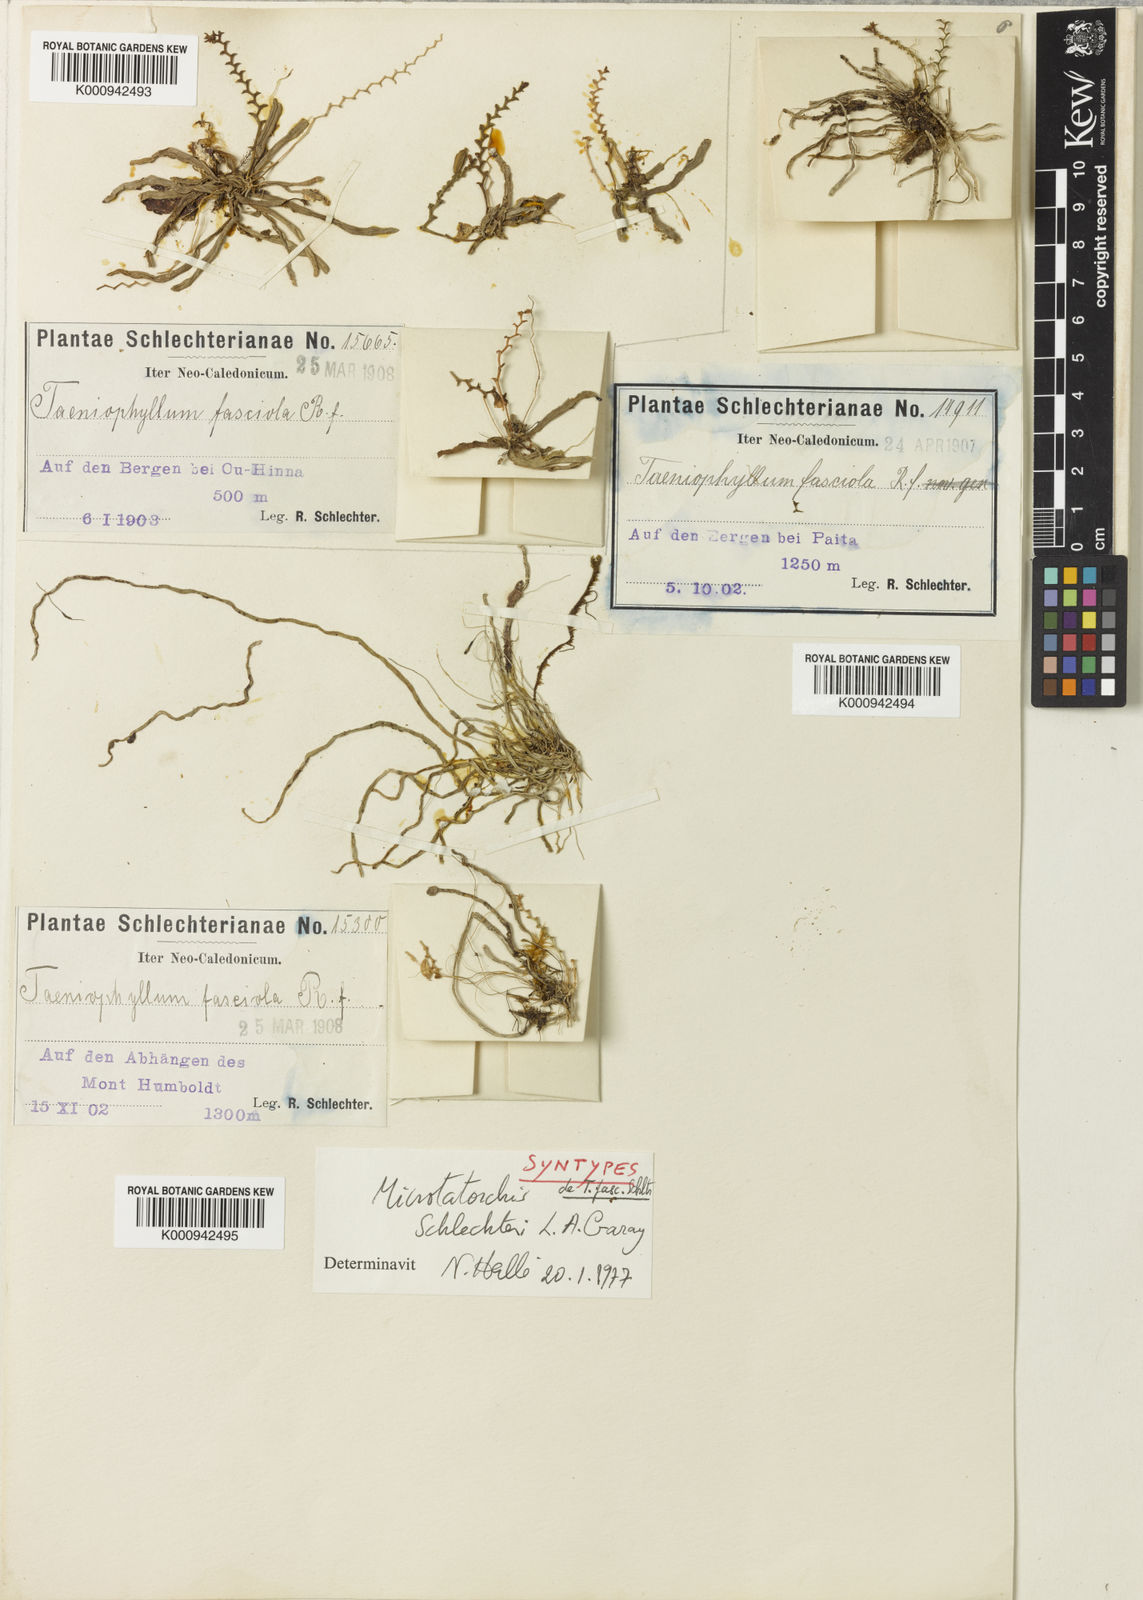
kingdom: Plantae
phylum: Tracheophyta
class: Liliopsida
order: Asparagales
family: Orchidaceae
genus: Taeniophyllum
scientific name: Taeniophyllum rudolfii
